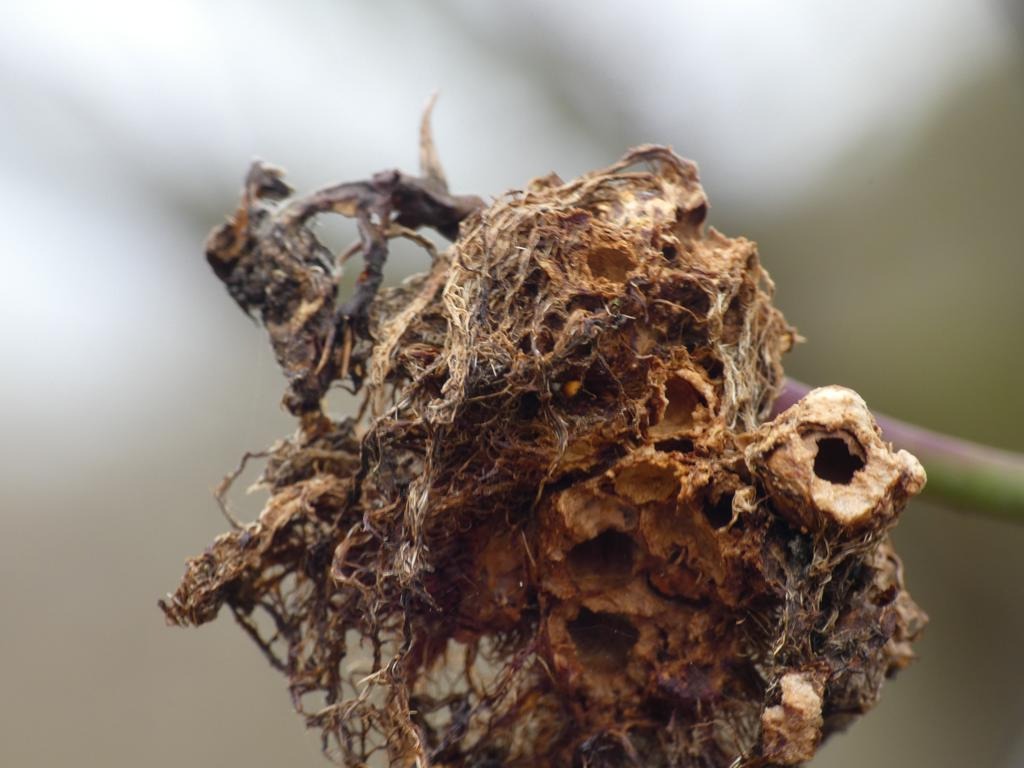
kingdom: Animalia
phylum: Arthropoda
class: Insecta
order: Hymenoptera
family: Cynipidae
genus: Diplolepis
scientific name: Diplolepis rosae
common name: Bedeguargalhveps
